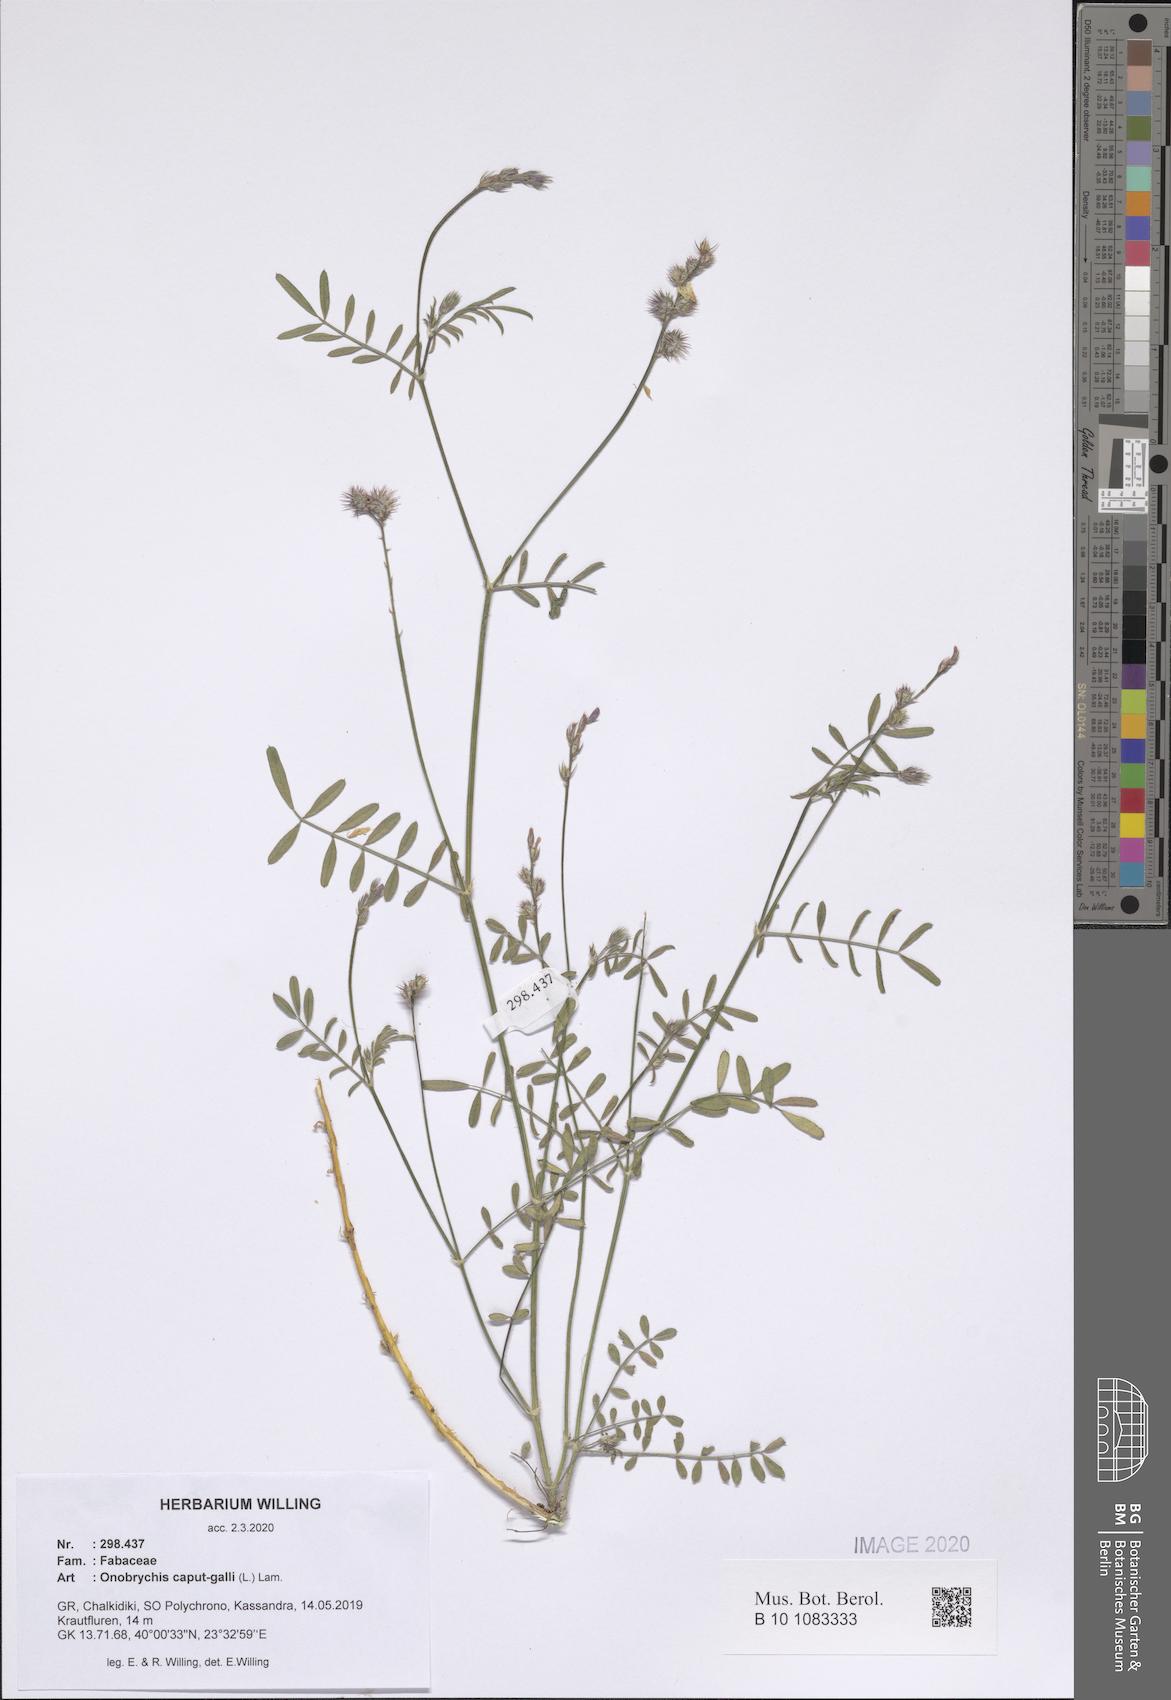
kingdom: Plantae
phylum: Tracheophyta
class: Magnoliopsida
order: Fabales
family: Fabaceae
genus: Onobrychis
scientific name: Onobrychis caput-galli
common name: Cockscomb sainfoin
